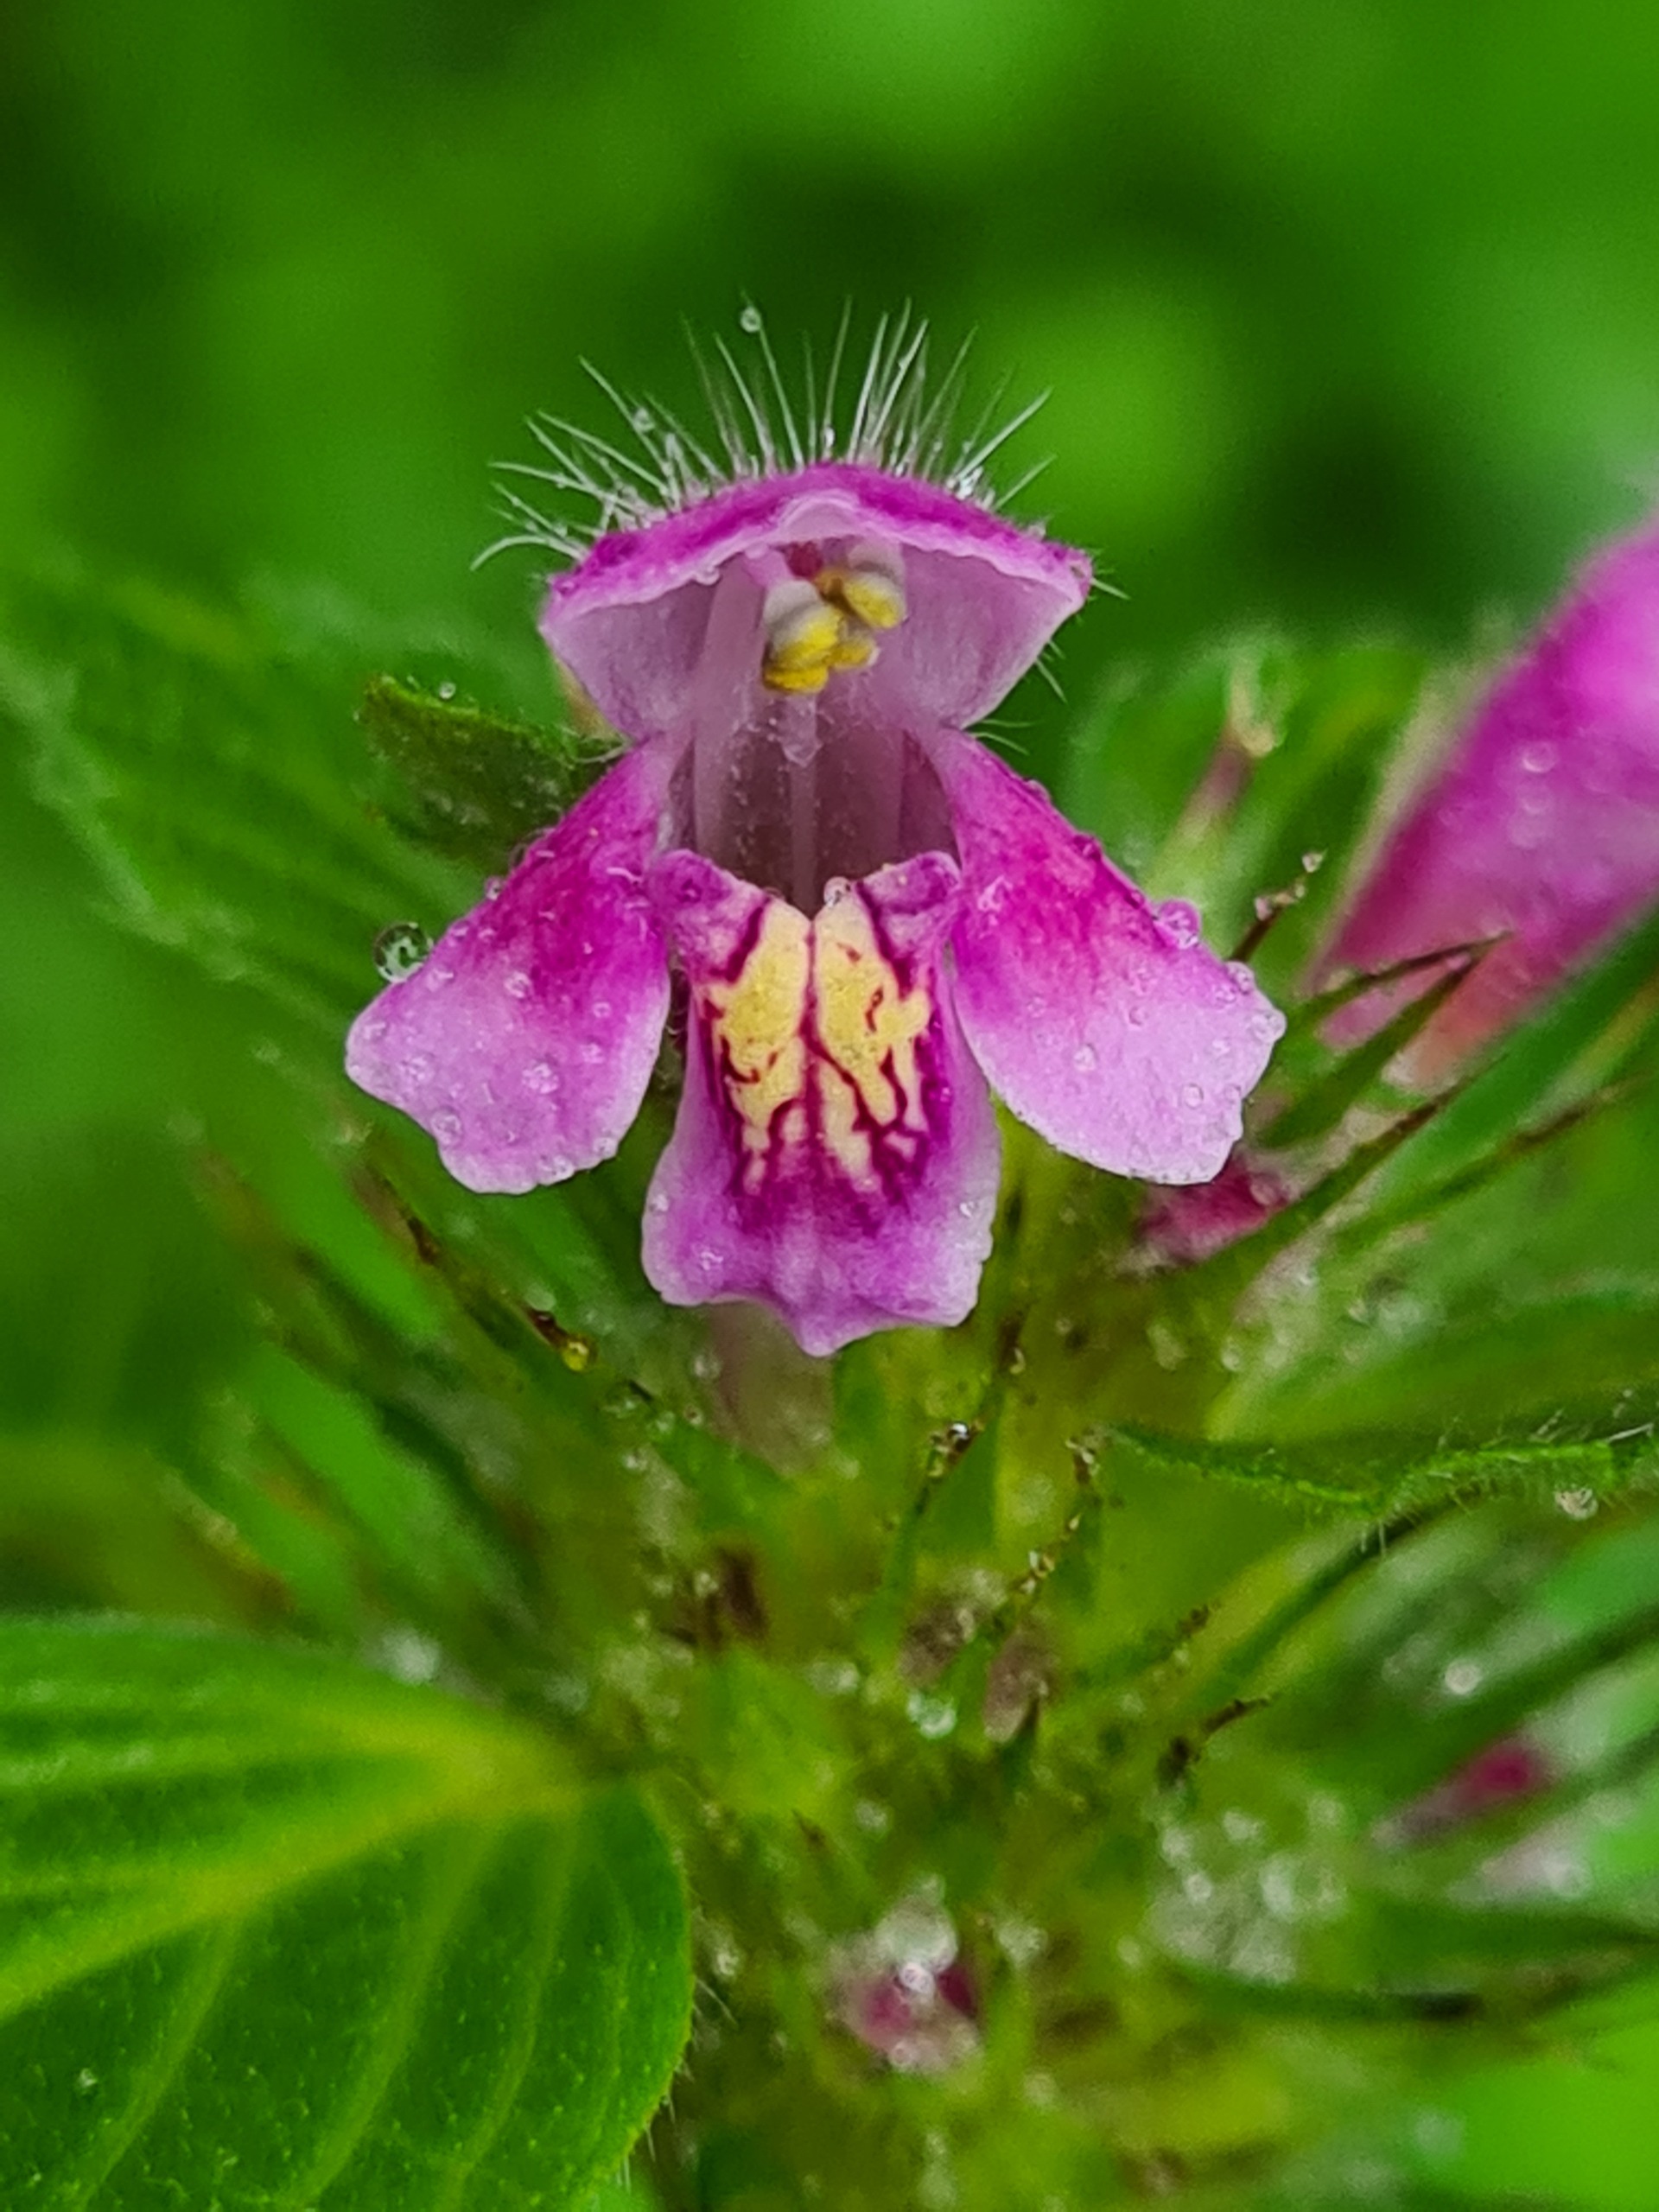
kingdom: Plantae
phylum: Tracheophyta
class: Magnoliopsida
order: Lamiales
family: Lamiaceae
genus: Galeopsis
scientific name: Galeopsis tetrahit
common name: Almindelig hanekro
